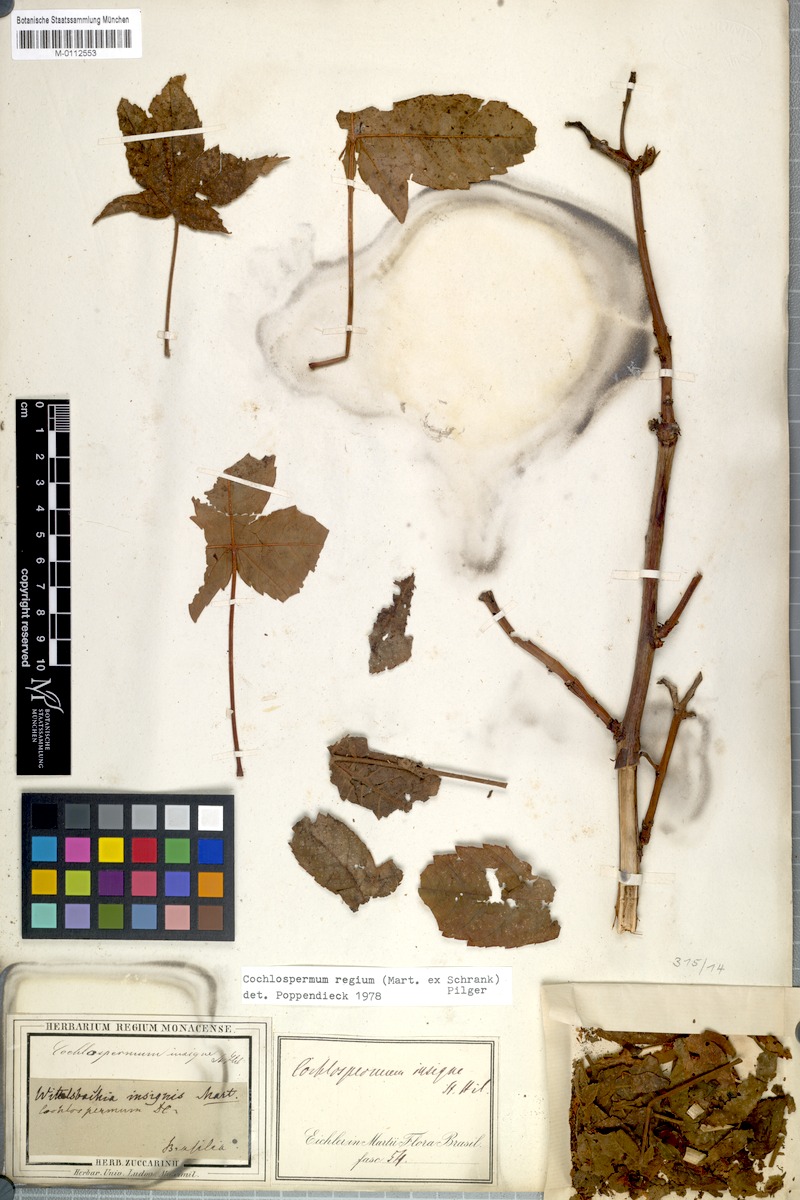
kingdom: Plantae
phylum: Tracheophyta
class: Magnoliopsida
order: Malvales
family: Cochlospermaceae
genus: Cochlospermum
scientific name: Cochlospermum regium
